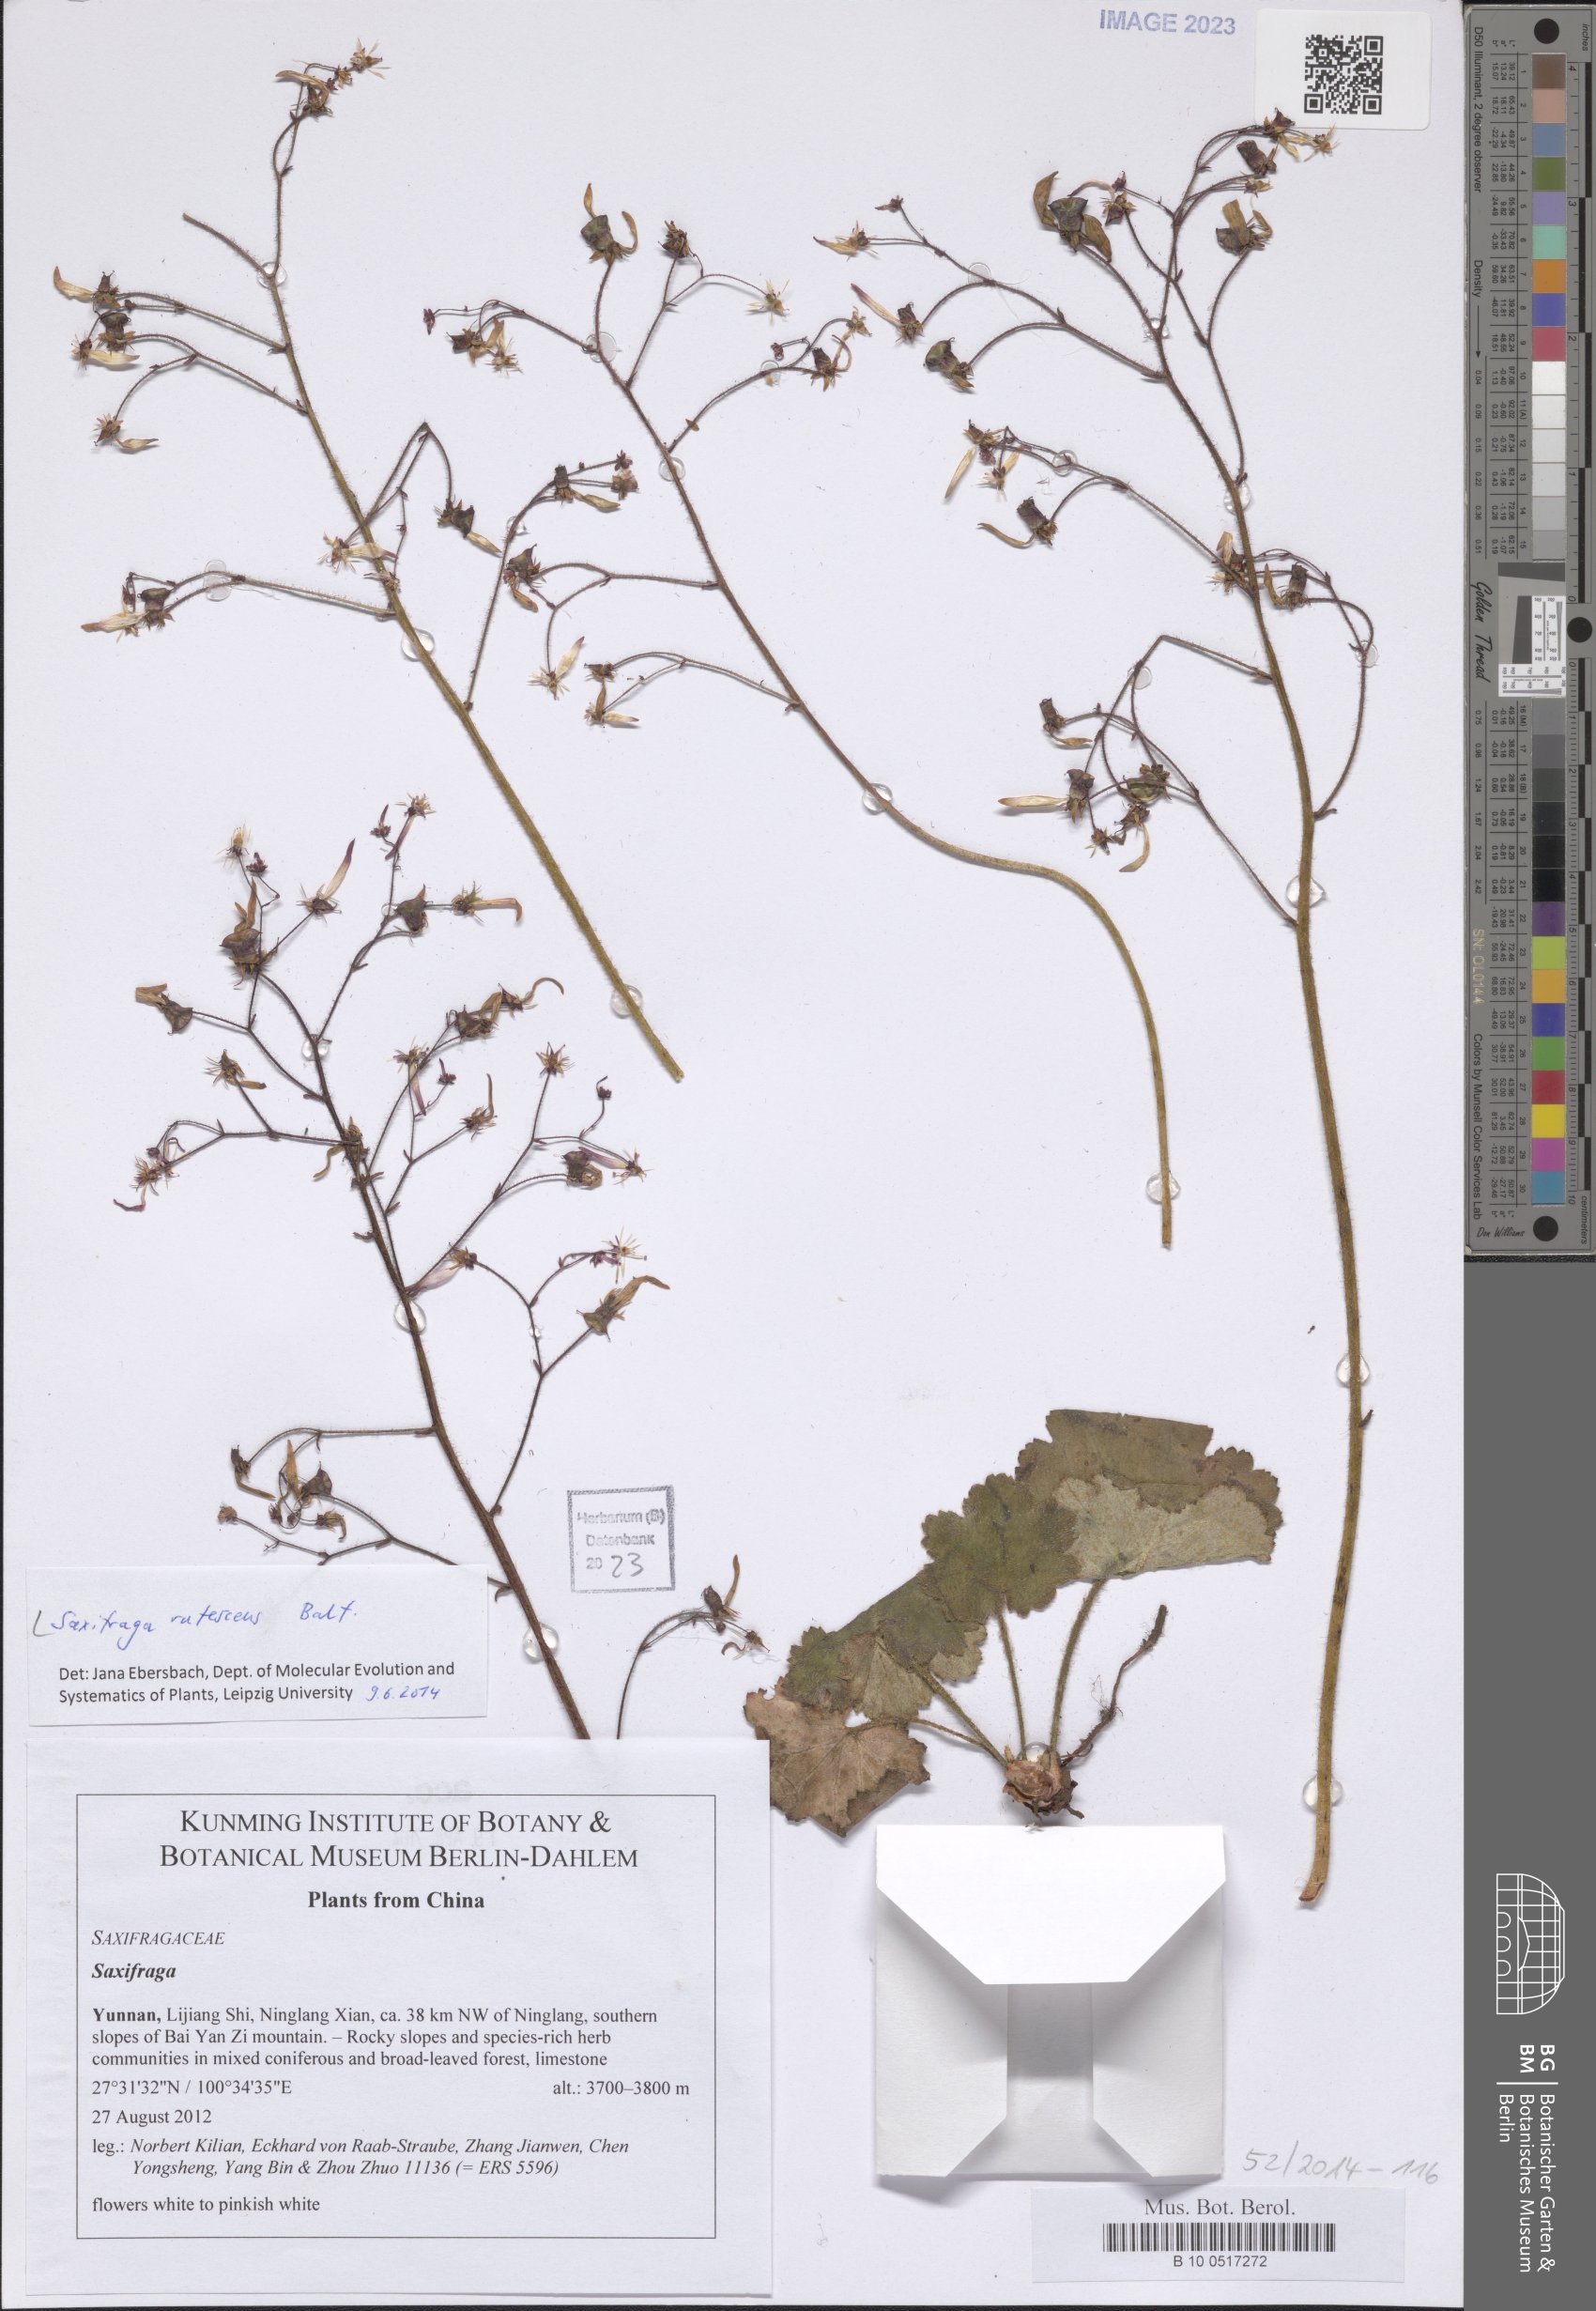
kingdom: Plantae
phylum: Tracheophyta
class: Magnoliopsida
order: Saxifragales
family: Saxifragaceae
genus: Saxifraga
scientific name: Saxifraga rufescens
